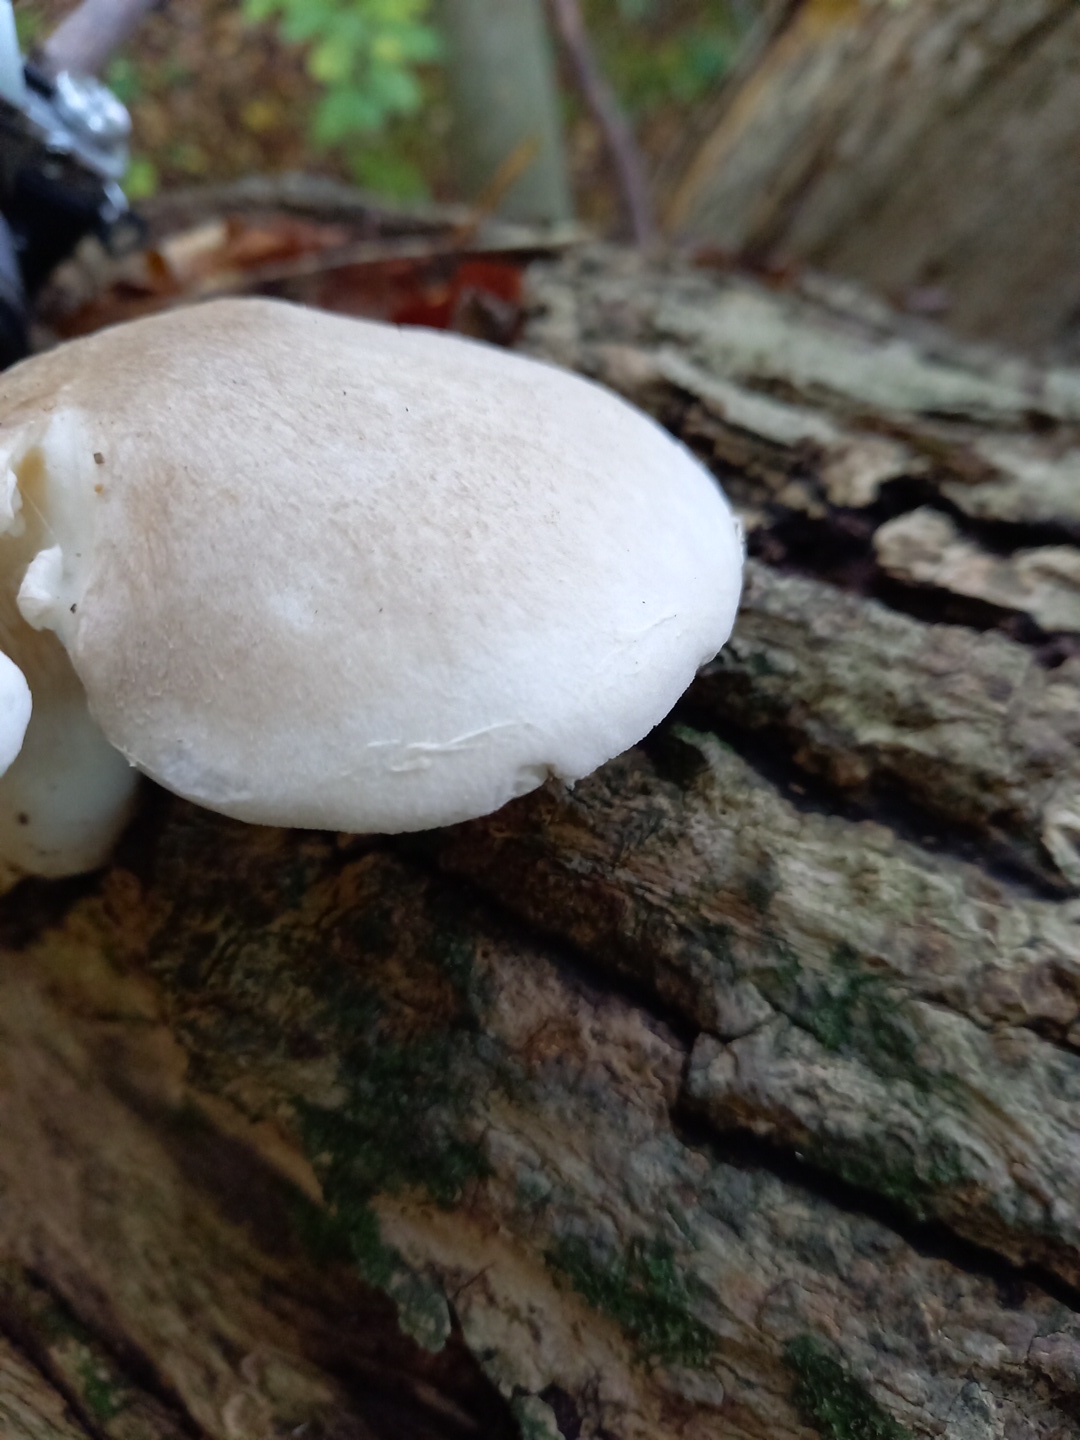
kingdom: Fungi
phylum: Basidiomycota
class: Agaricomycetes
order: Agaricales
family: Pleurotaceae
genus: Pleurotus
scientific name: Pleurotus dryinus
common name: korkagtig østershat
